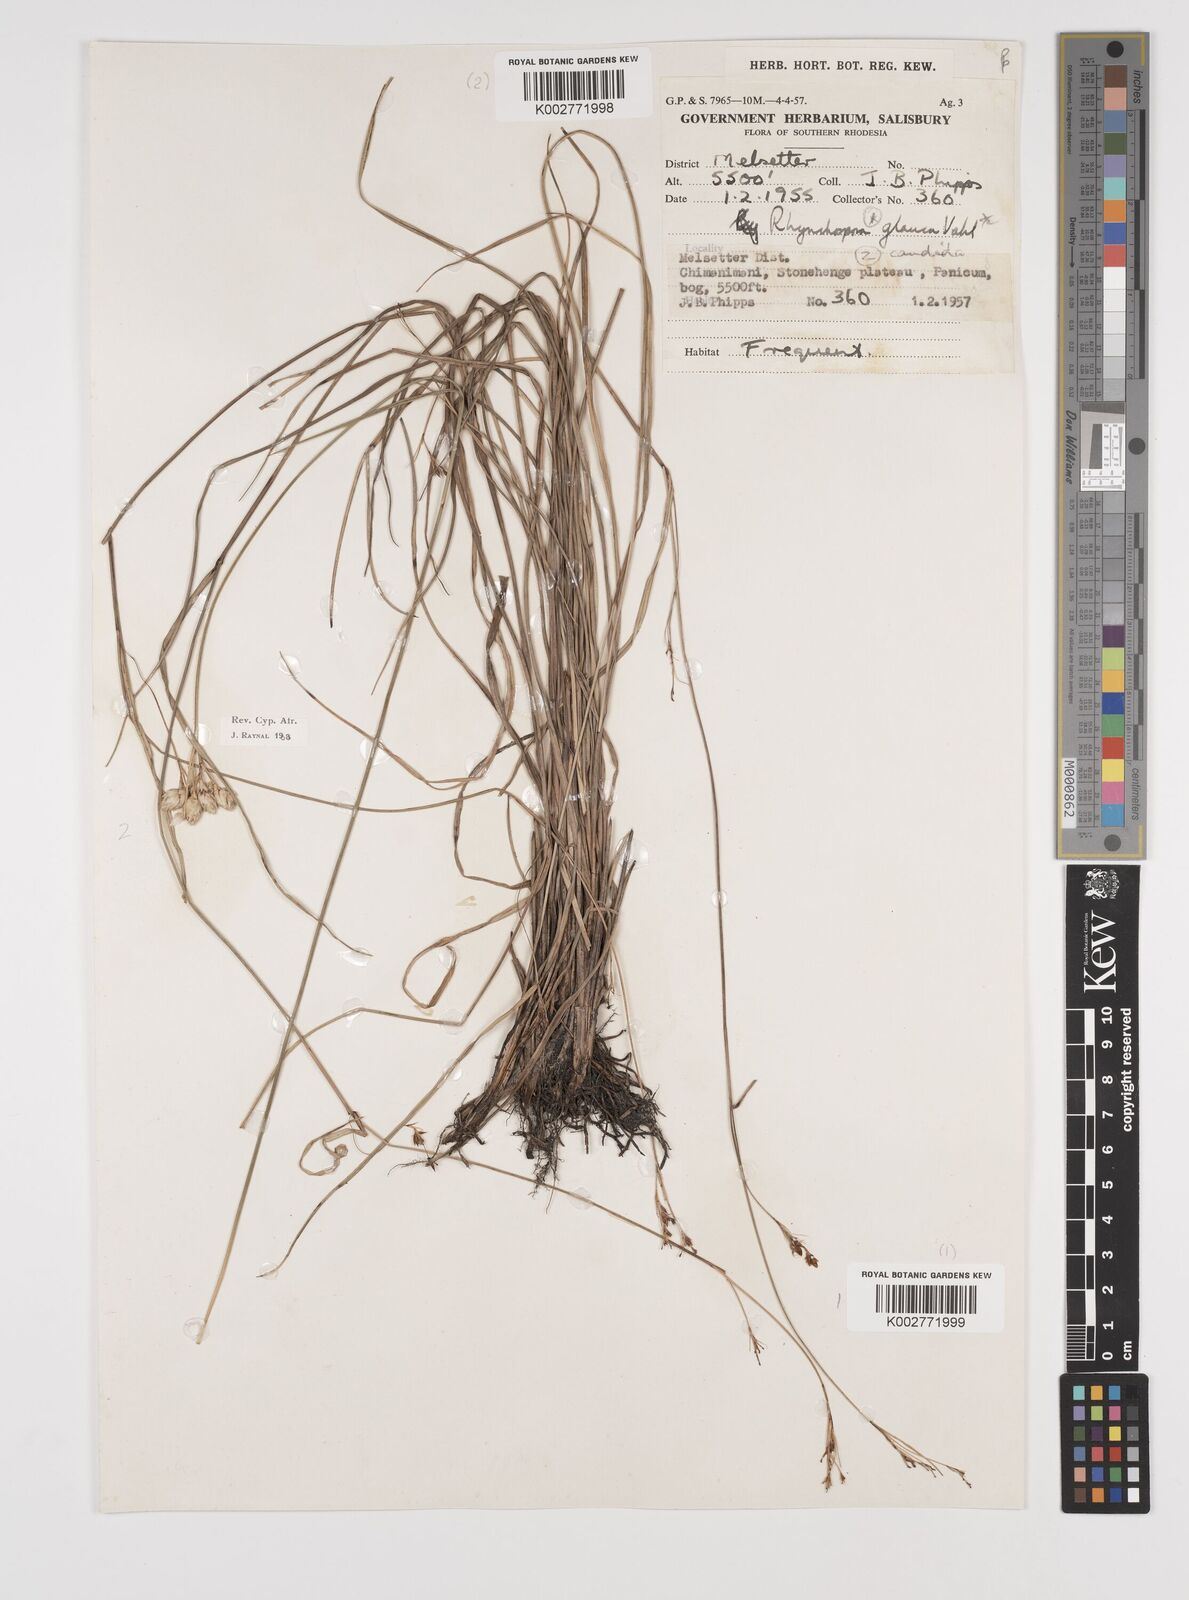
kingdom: Plantae
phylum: Tracheophyta
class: Liliopsida
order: Poales
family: Cyperaceae
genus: Rhynchospora
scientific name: Rhynchospora candida
